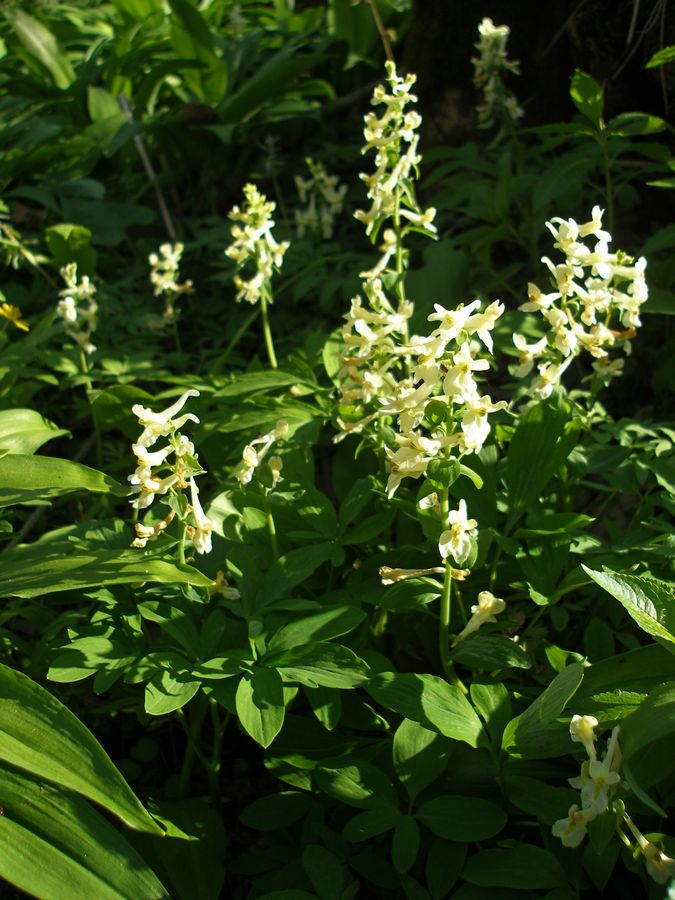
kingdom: Plantae
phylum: Tracheophyta
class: Magnoliopsida
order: Ranunculales
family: Papaveraceae
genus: Corydalis
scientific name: Corydalis cava
